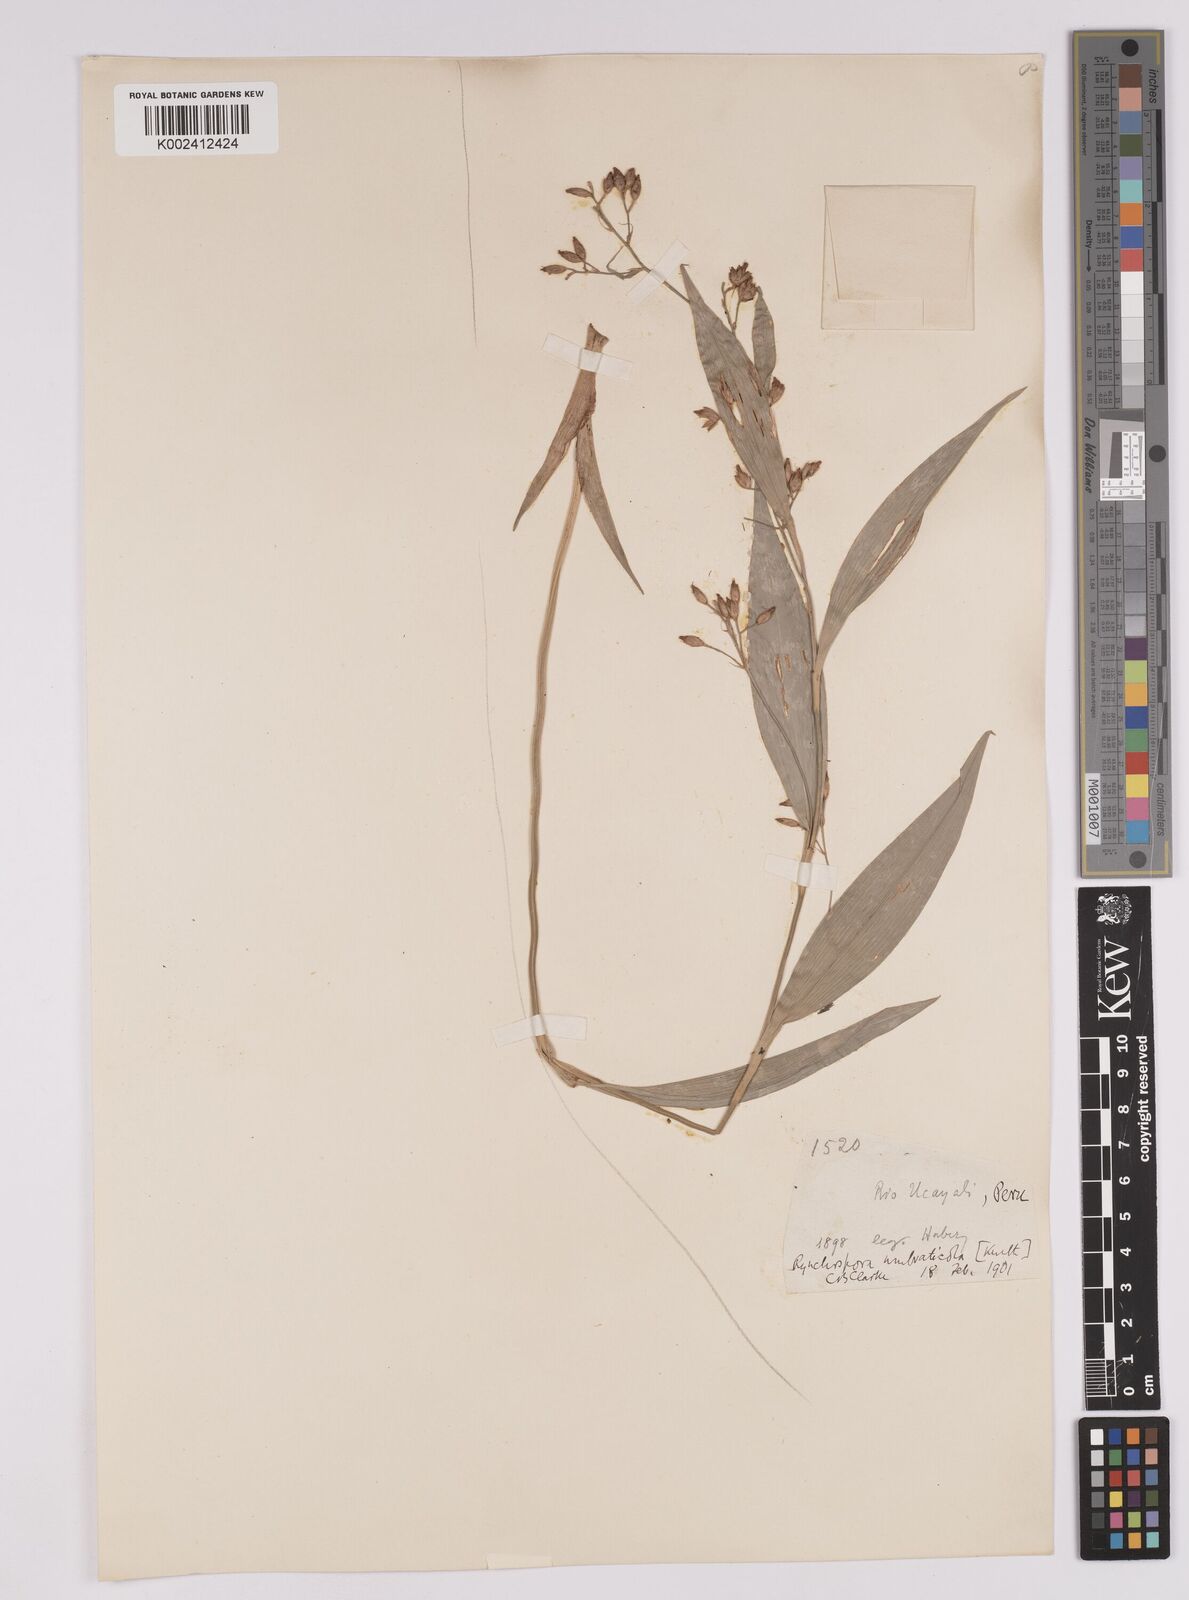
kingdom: Plantae
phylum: Tracheophyta
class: Liliopsida
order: Poales
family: Cyperaceae
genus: Rhynchospora
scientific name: Rhynchospora umbraticola
